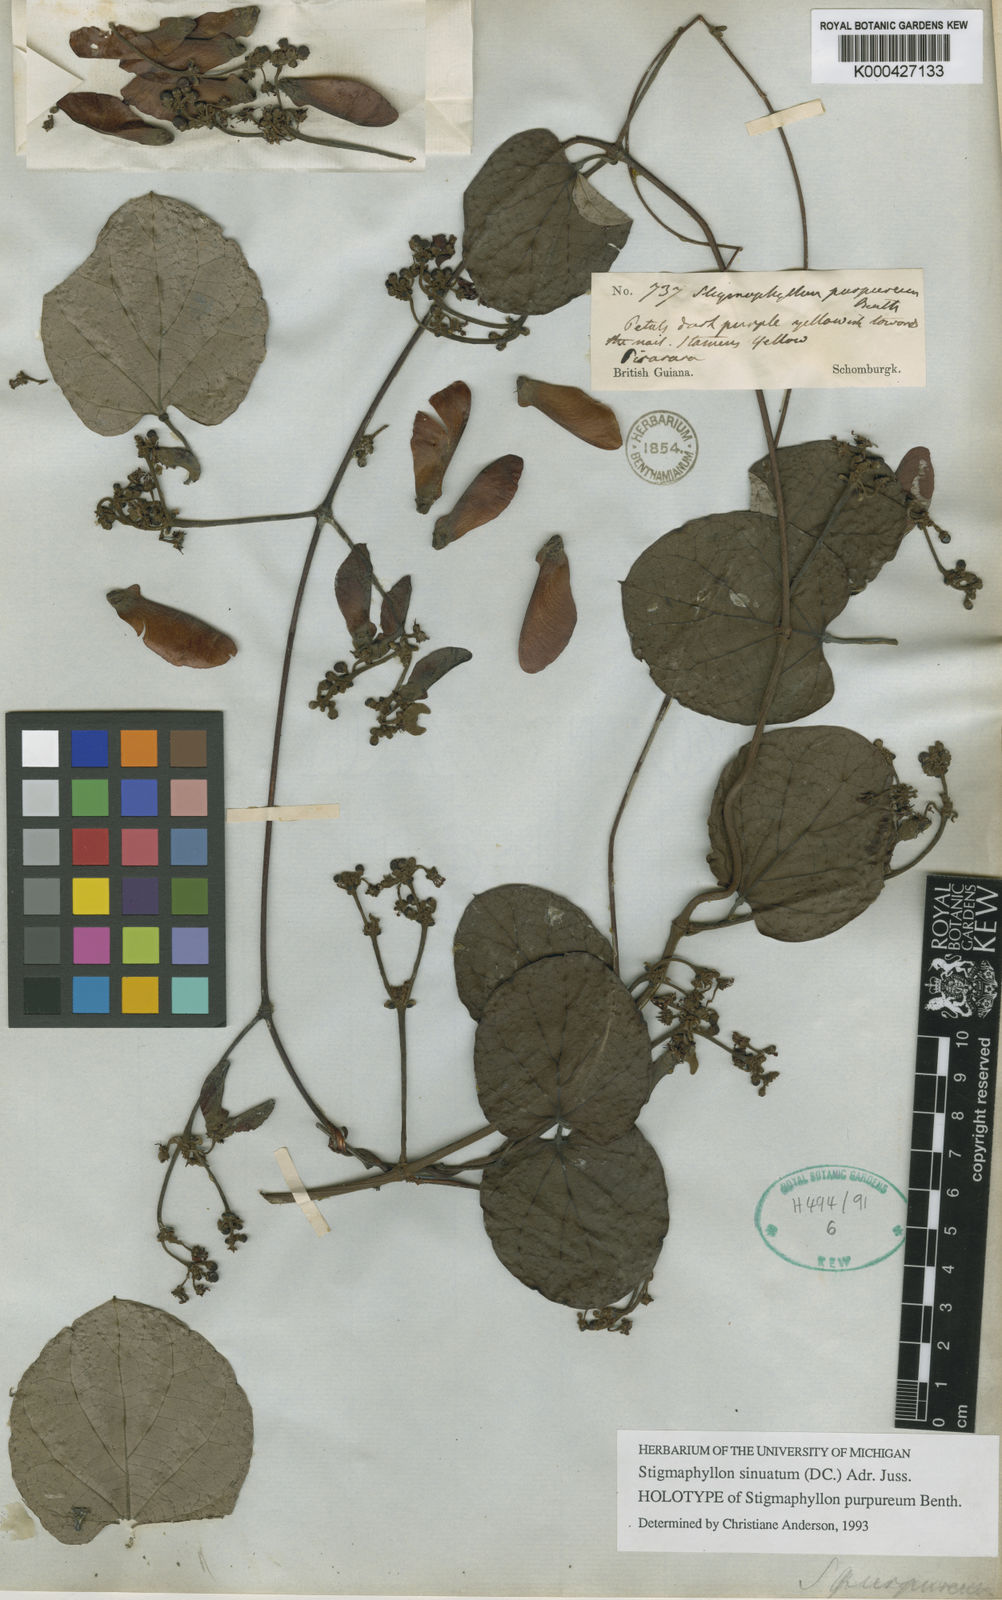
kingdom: Plantae
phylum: Tracheophyta
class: Magnoliopsida
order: Malpighiales
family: Malpighiaceae
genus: Stigmaphyllon
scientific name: Stigmaphyllon sinuatum
